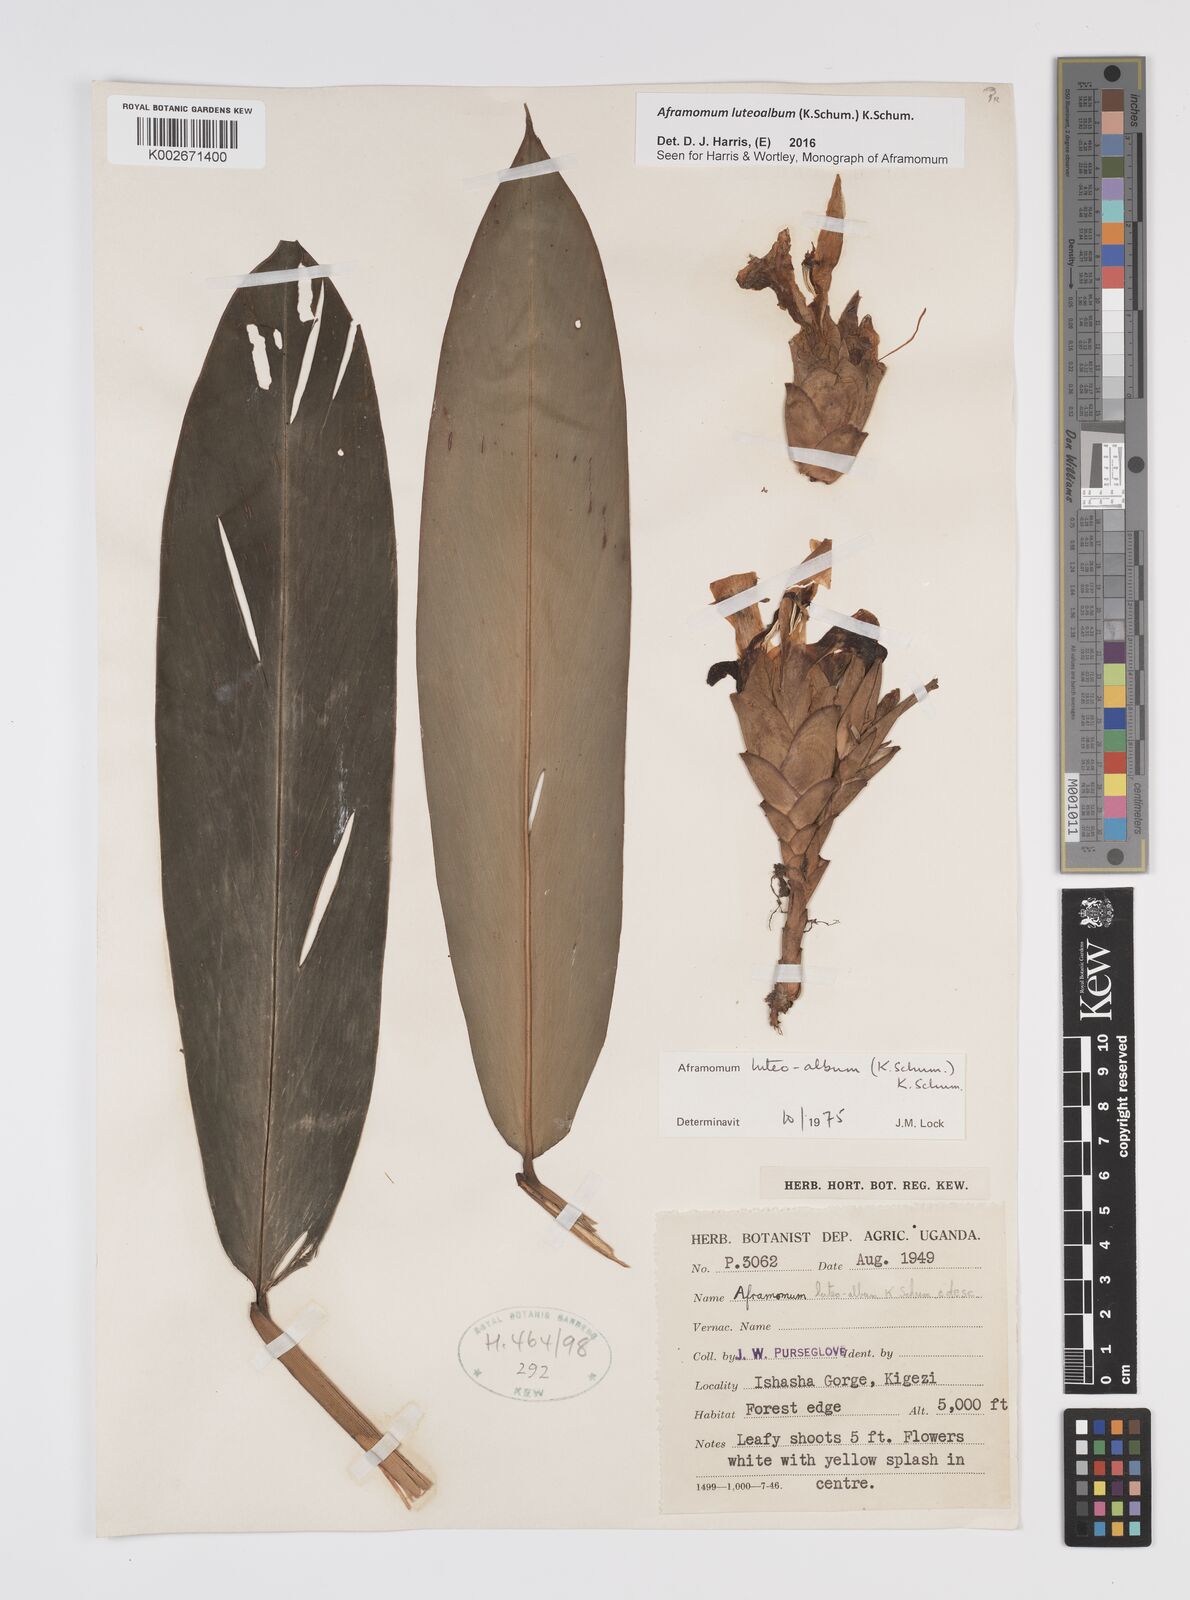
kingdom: Plantae
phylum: Tracheophyta
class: Liliopsida
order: Zingiberales
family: Zingiberaceae
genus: Aframomum
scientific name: Aframomum luteoalbum
